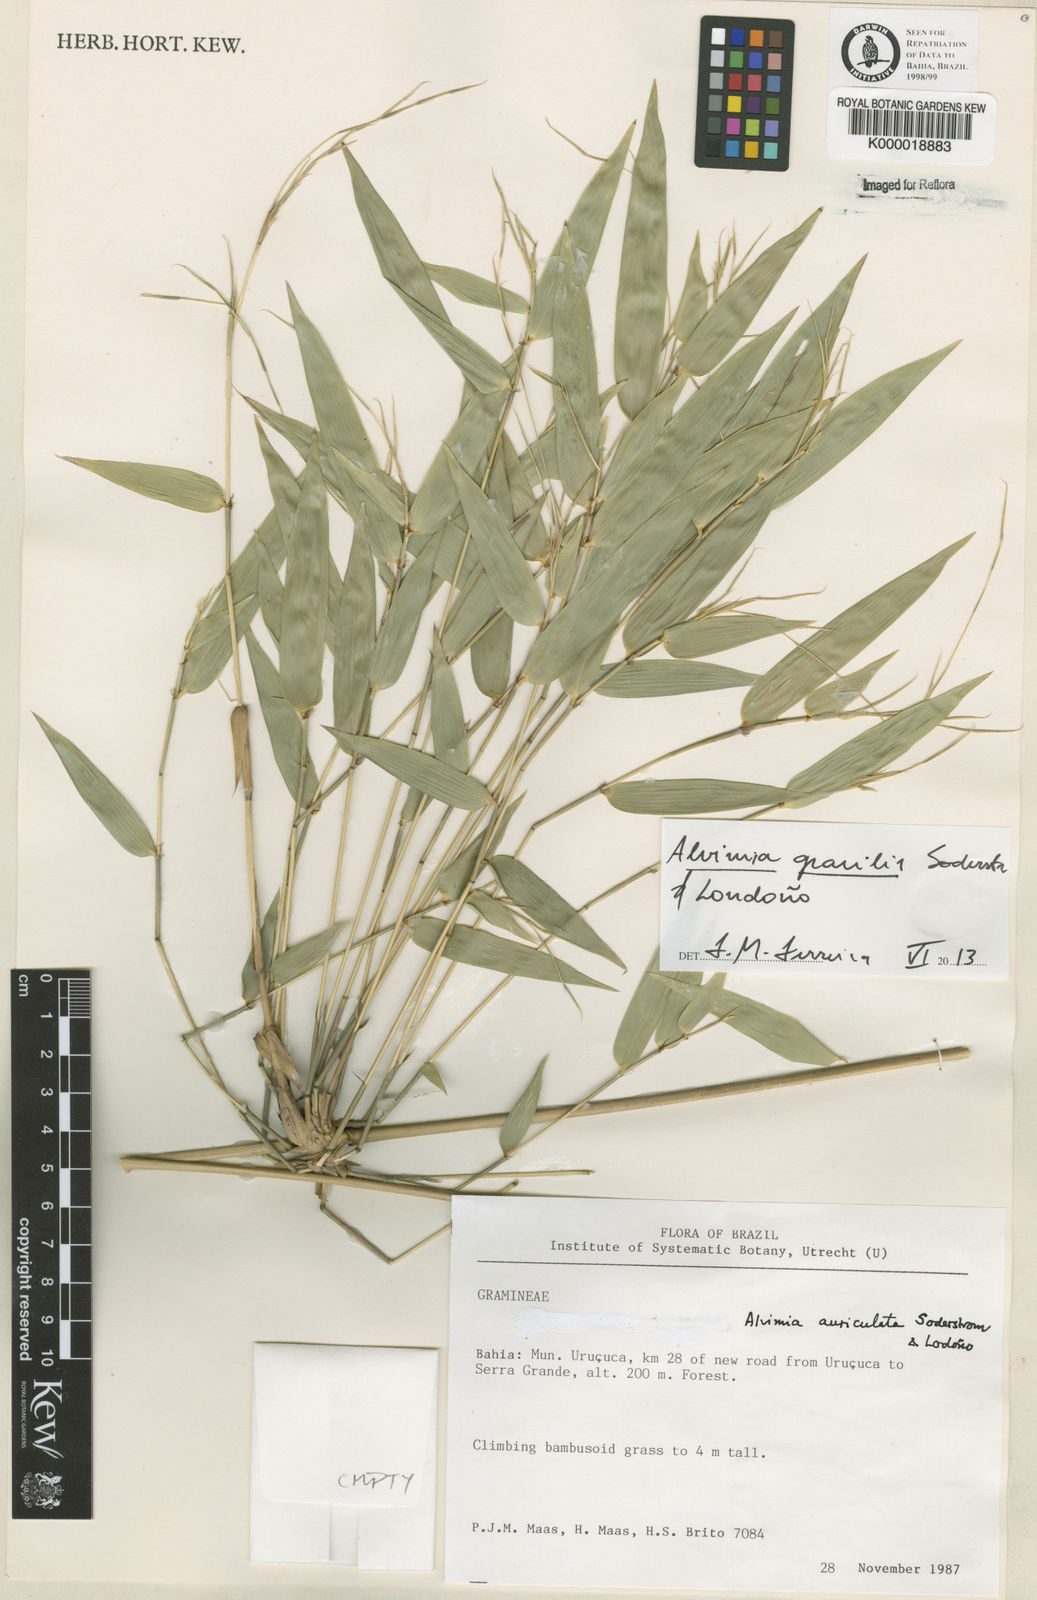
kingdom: Plantae
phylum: Tracheophyta
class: Liliopsida
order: Poales
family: Poaceae
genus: Alvimia
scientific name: Alvimia
